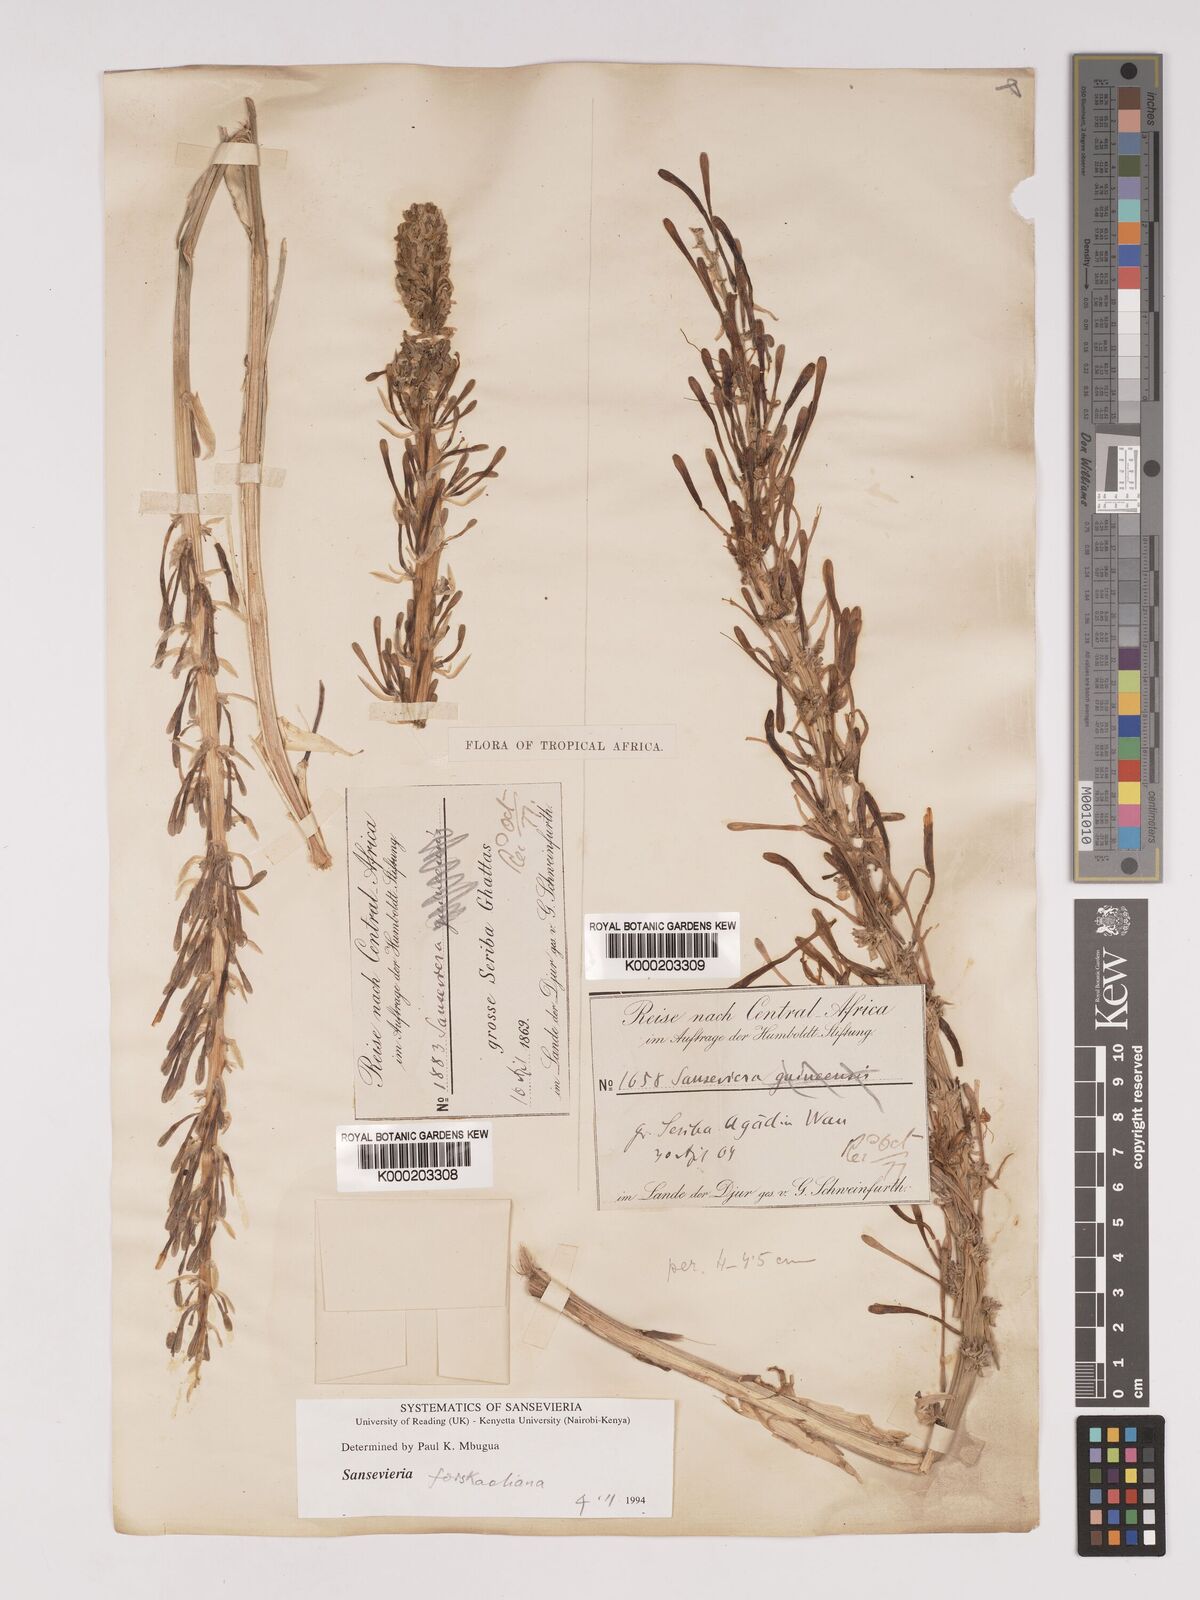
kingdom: Plantae
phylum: Tracheophyta
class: Liliopsida
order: Asparagales
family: Asparagaceae
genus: Dracaena
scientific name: Dracaena
